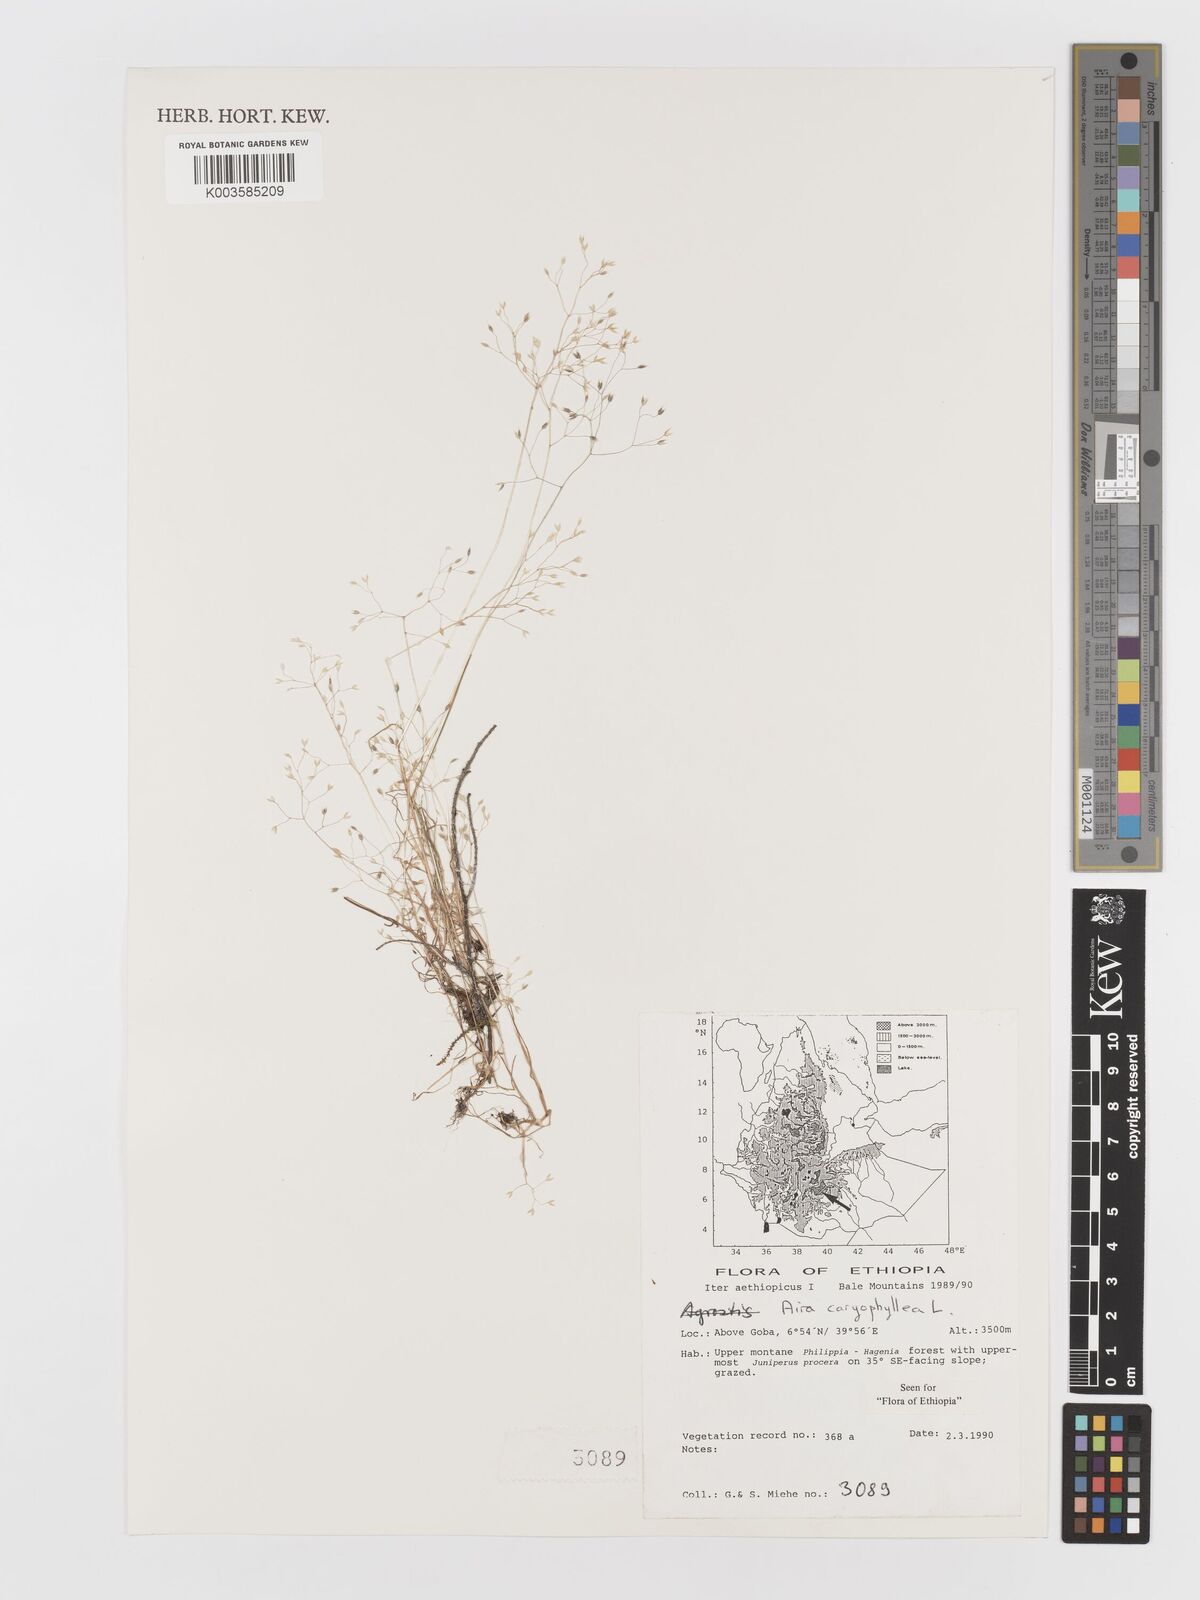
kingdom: Plantae
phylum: Tracheophyta
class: Liliopsida
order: Poales
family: Poaceae
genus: Aira
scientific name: Aira caryophyllea
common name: Silver hairgrass
